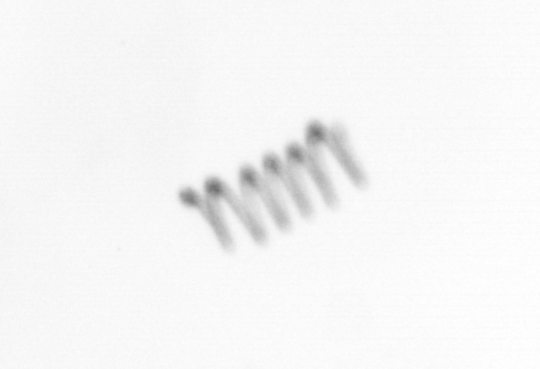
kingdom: Chromista
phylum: Ochrophyta
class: Bacillariophyceae
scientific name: Bacillariophyceae
